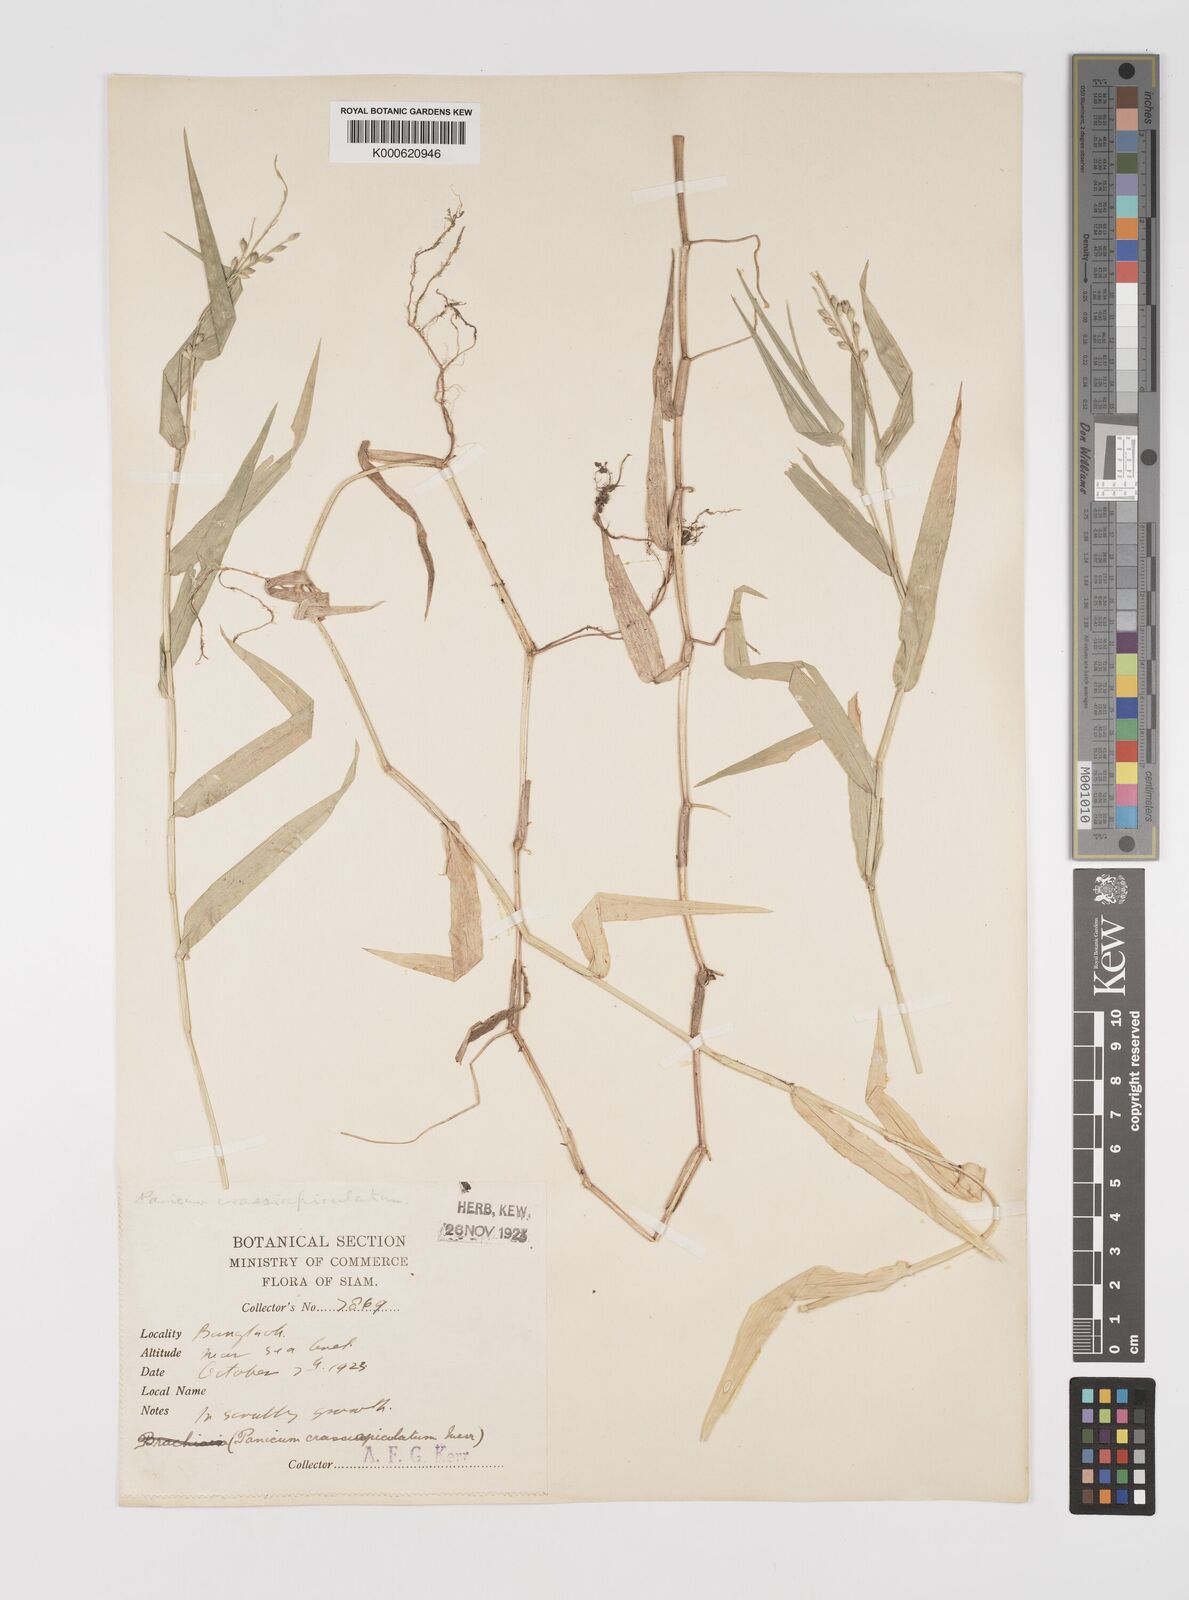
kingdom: Plantae
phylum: Tracheophyta
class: Liliopsida
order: Poales
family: Poaceae
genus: Acroceras
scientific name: Acroceras munroanum
